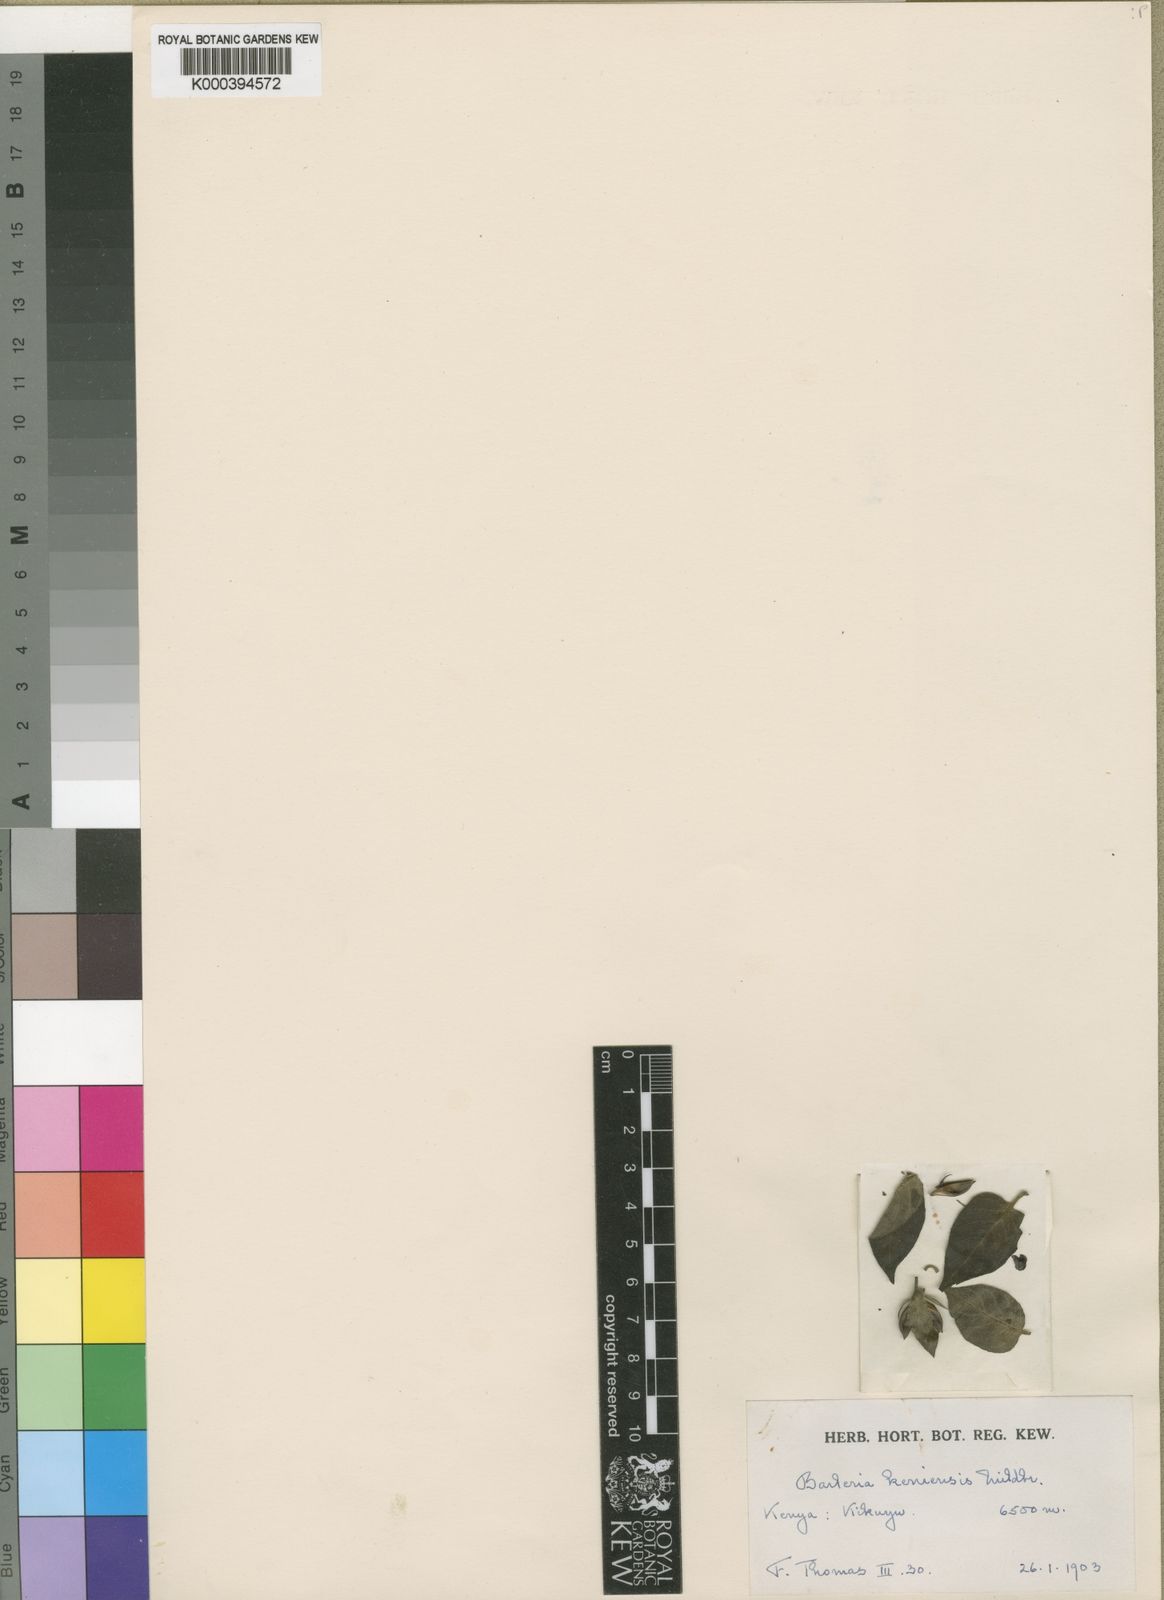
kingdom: Plantae
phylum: Tracheophyta
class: Magnoliopsida
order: Lamiales
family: Acanthaceae
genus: Barleria
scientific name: Barleria ventricosa
